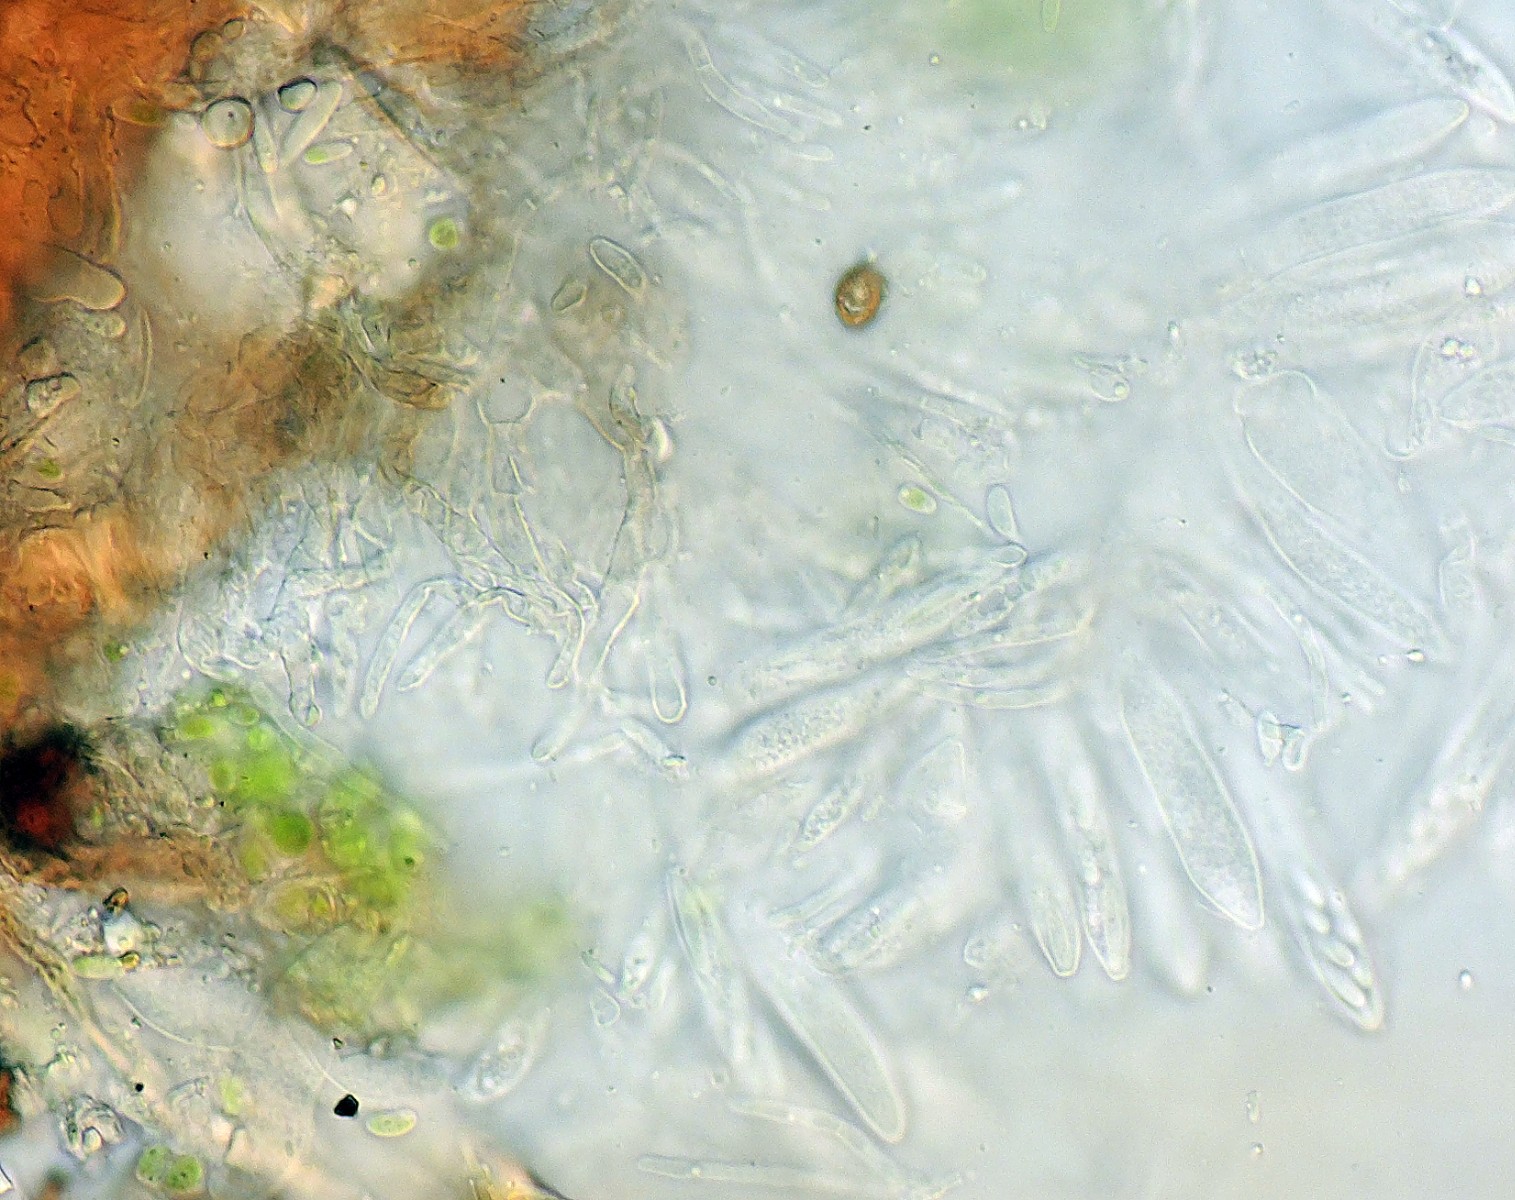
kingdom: Fungi
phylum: Ascomycota
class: Leotiomycetes
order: Helotiales
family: Hamatocanthoscyphaceae
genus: Microscypha
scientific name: Microscypha grisella
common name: grålig hårskive
